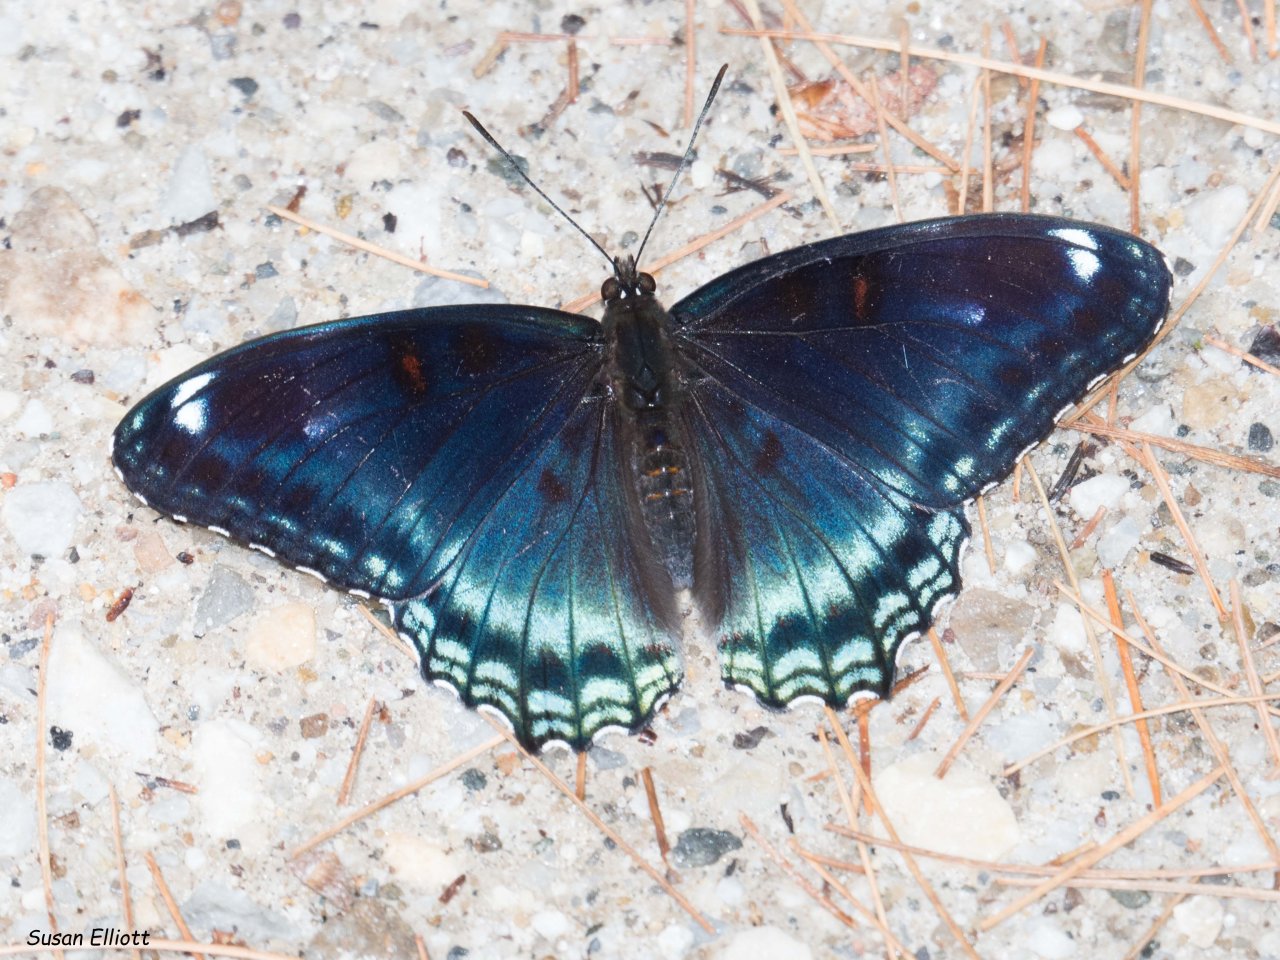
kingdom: Animalia
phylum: Arthropoda
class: Insecta
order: Lepidoptera
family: Nymphalidae
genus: Limenitis
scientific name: Limenitis
